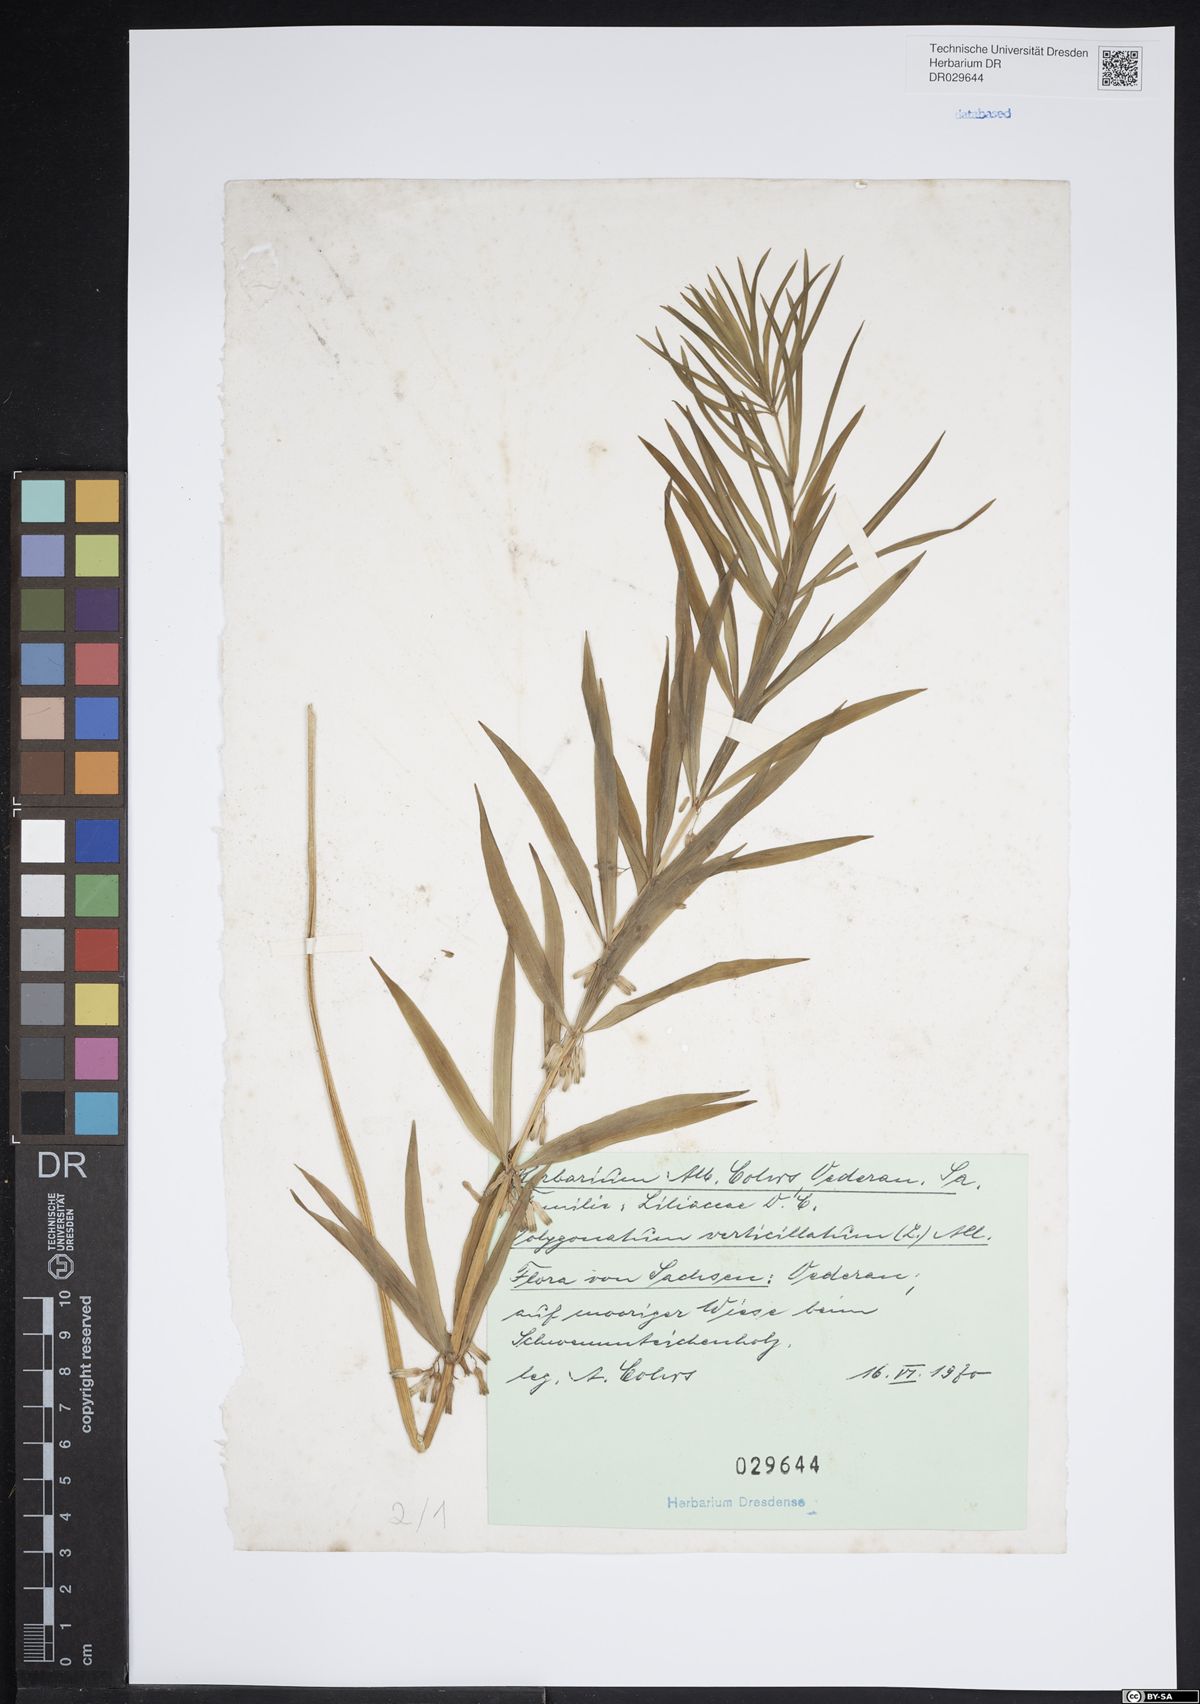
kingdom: Plantae
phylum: Tracheophyta
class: Liliopsida
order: Asparagales
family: Asparagaceae
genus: Polygonatum
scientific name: Polygonatum verticillatum
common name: Whorled solomon's-seal
